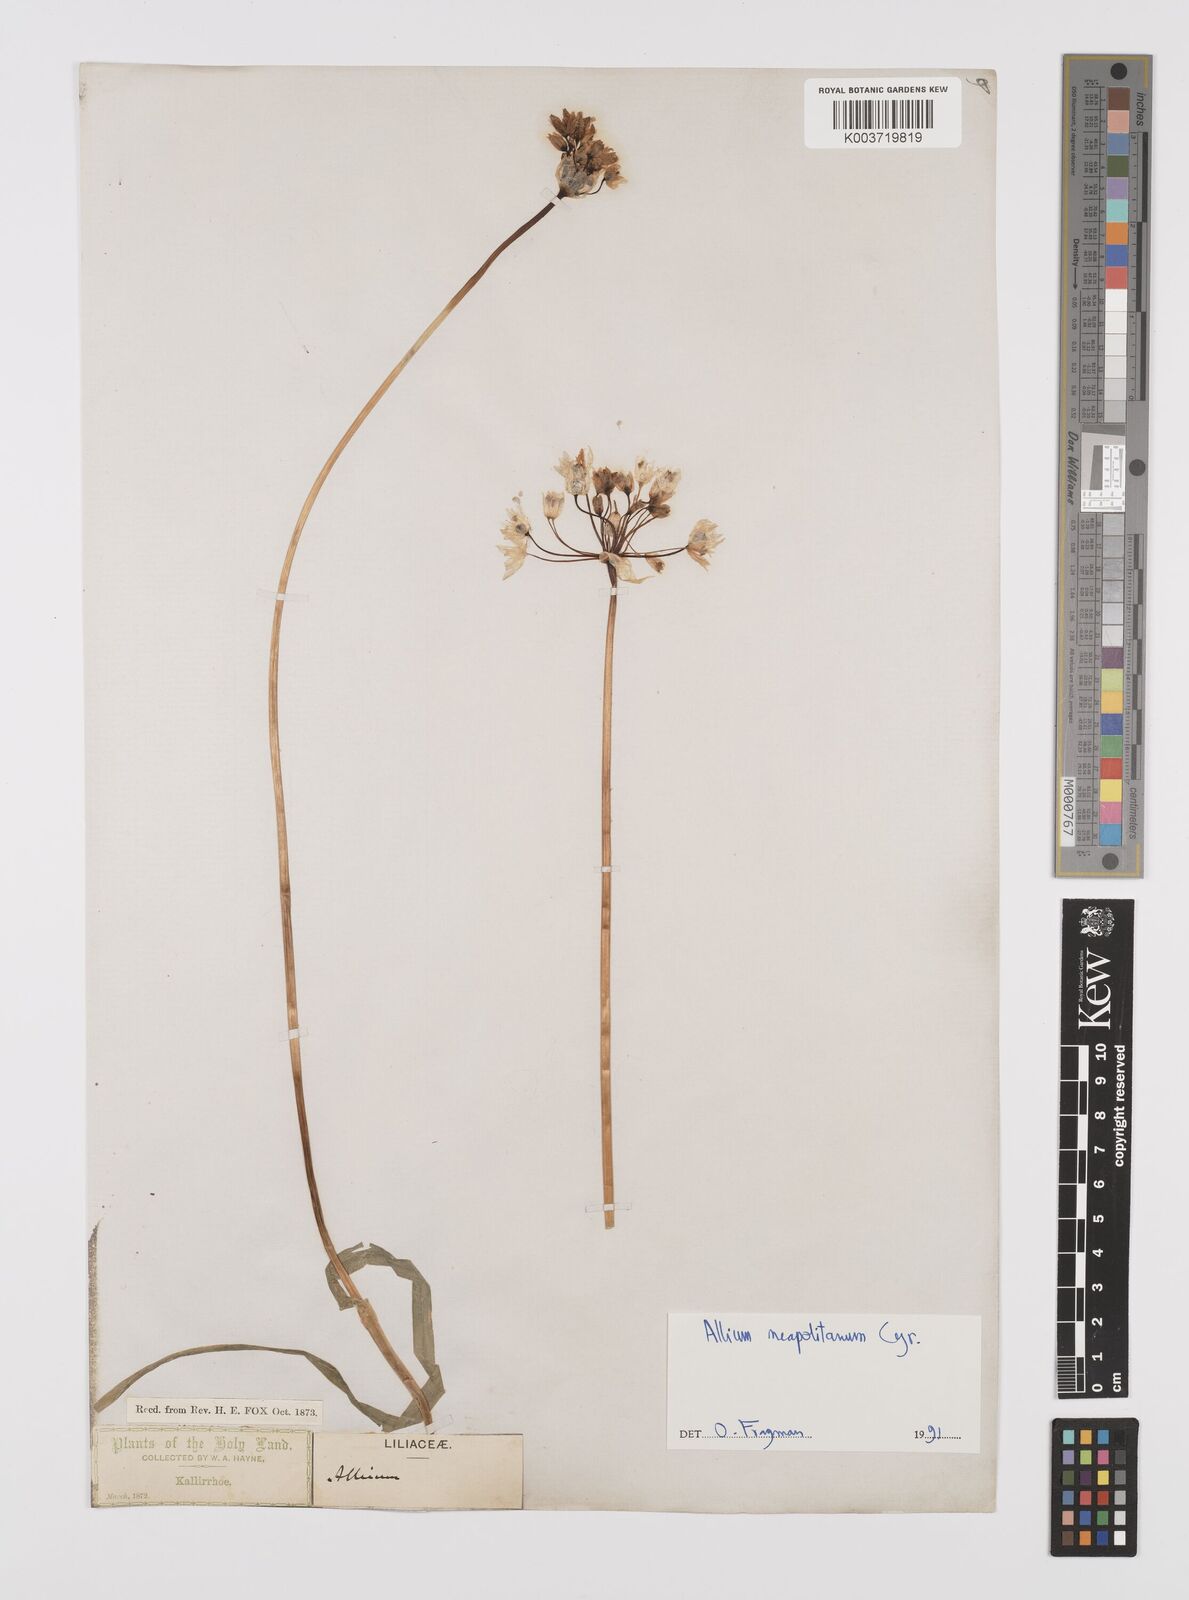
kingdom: Plantae
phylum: Tracheophyta
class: Liliopsida
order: Asparagales
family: Amaryllidaceae
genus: Allium
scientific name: Allium neapolitanum
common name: Neapolitan garlic
